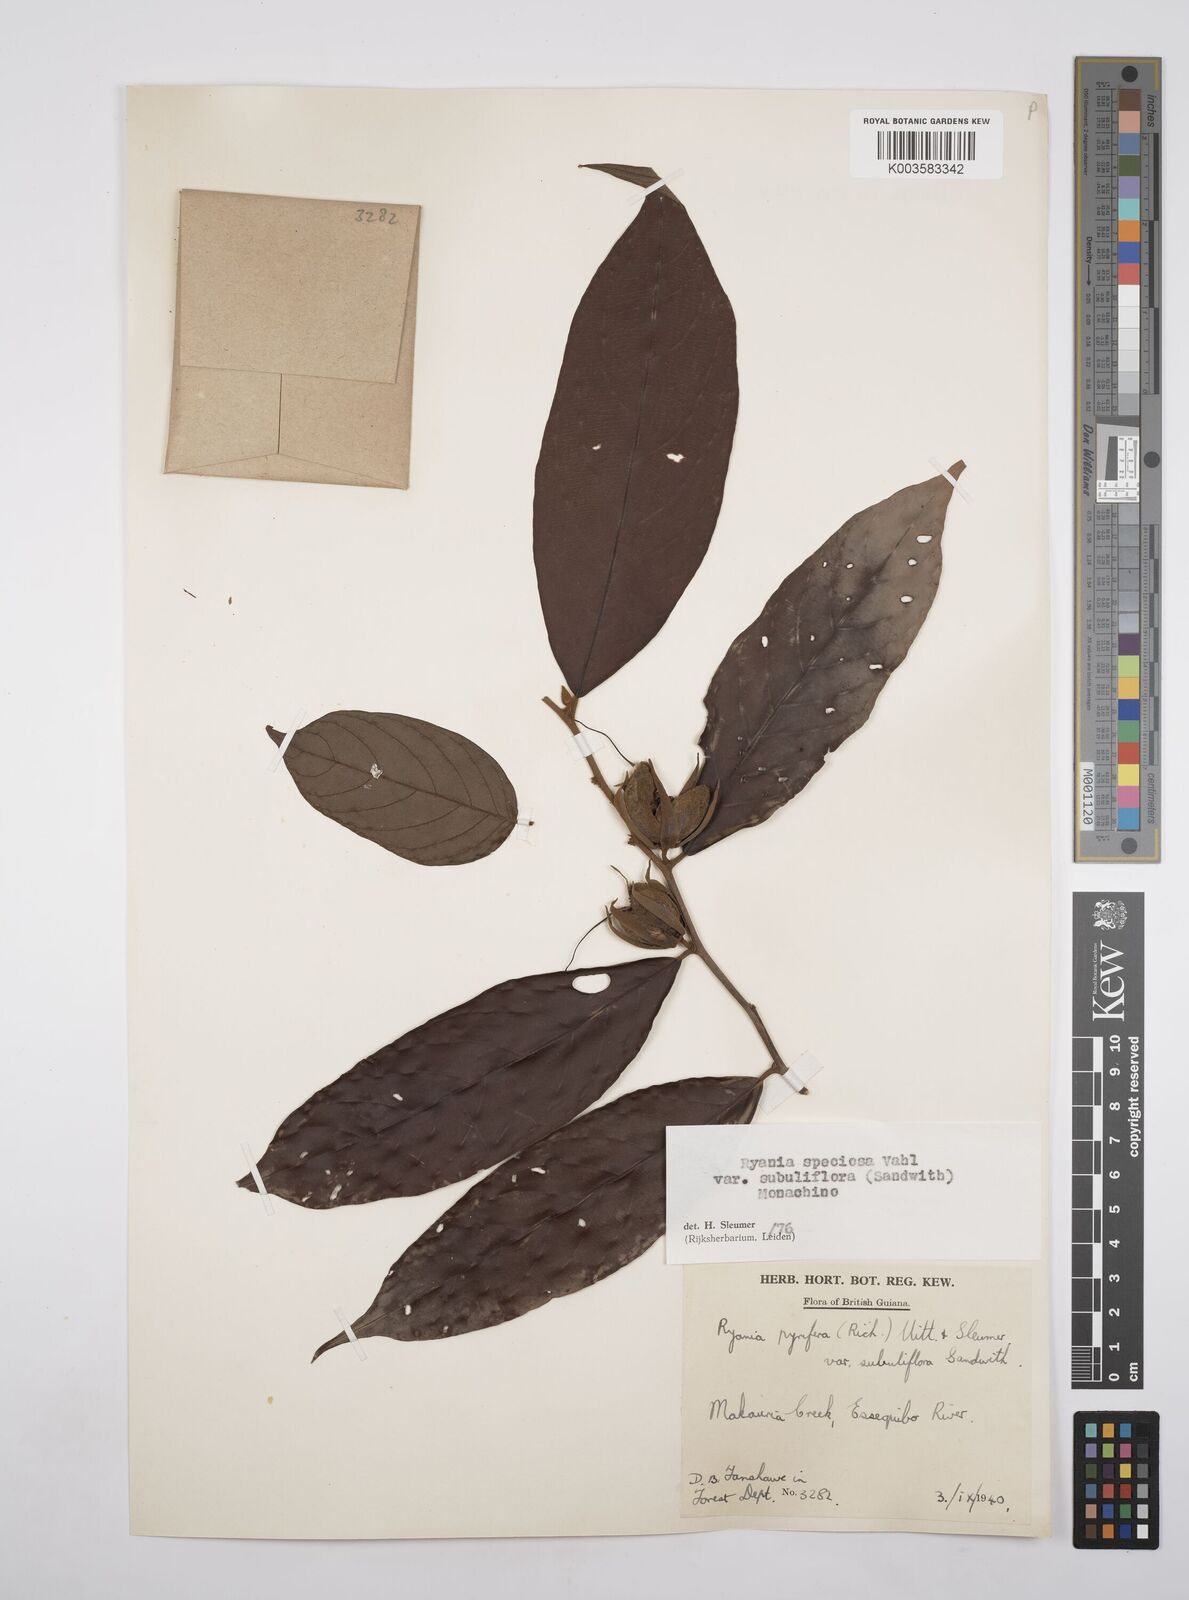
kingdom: Plantae
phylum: Tracheophyta
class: Magnoliopsida
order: Malpighiales
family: Salicaceae
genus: Ryania
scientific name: Ryania speciosa
